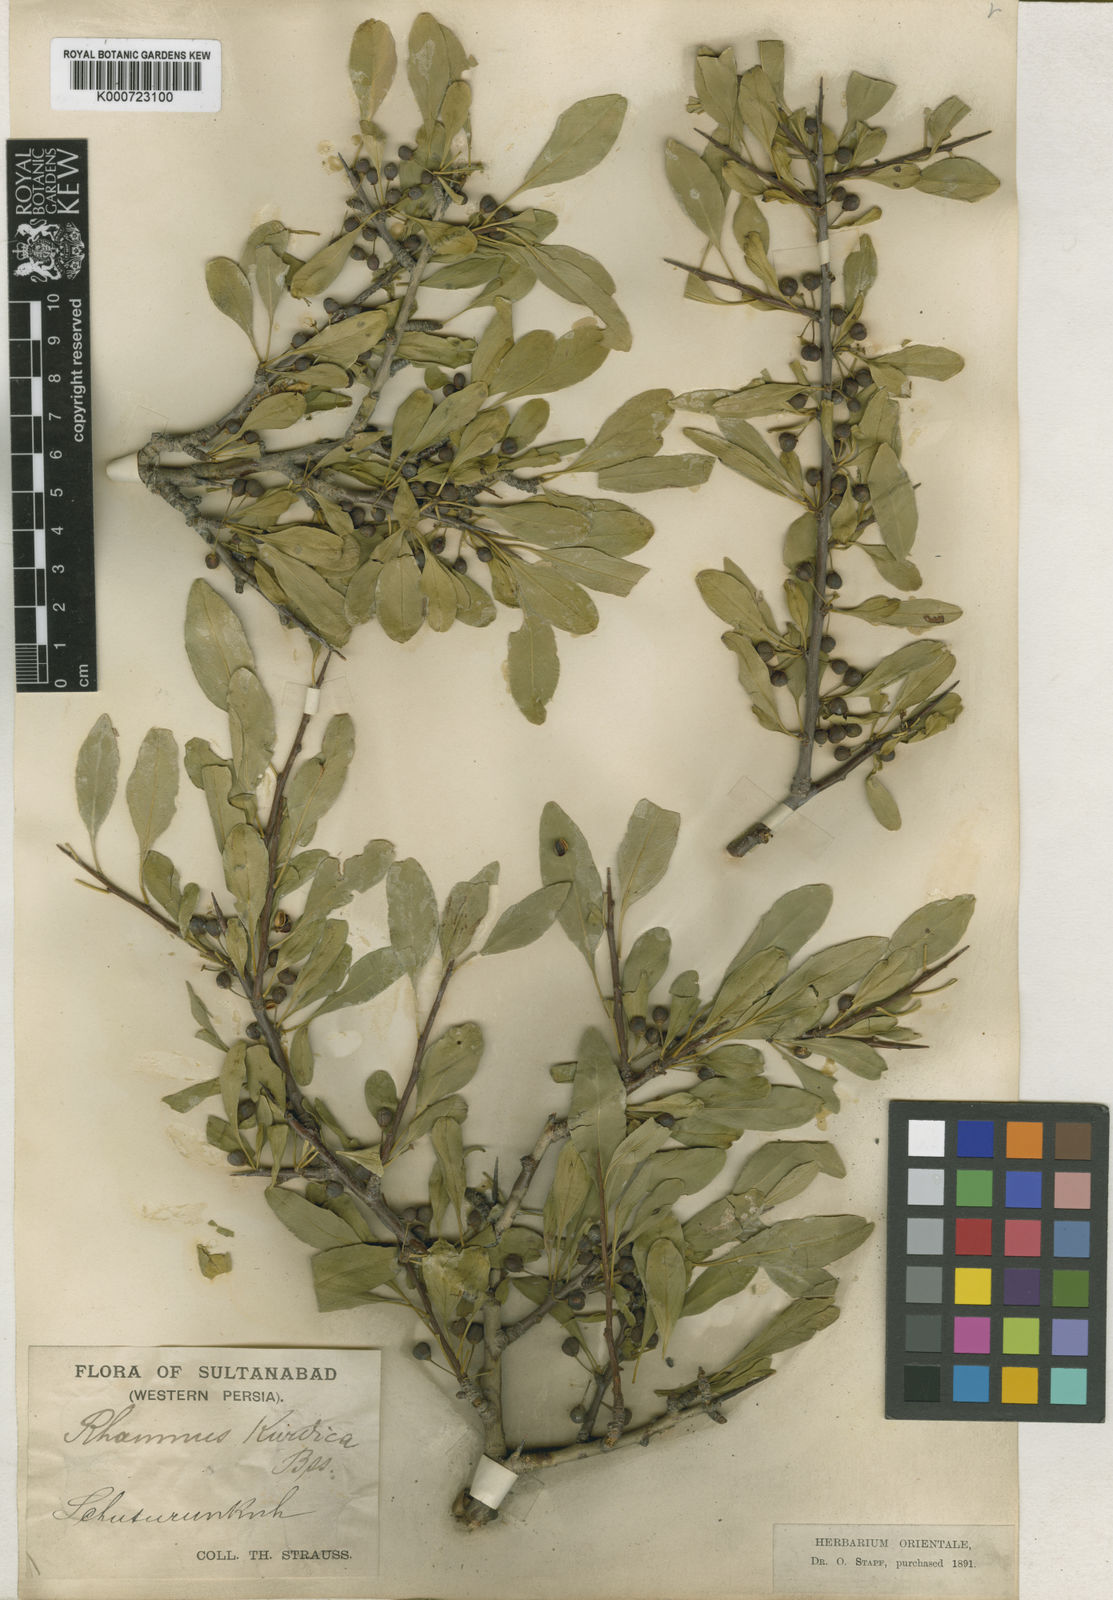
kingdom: Plantae
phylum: Tracheophyta
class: Magnoliopsida
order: Rosales
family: Rhamnaceae
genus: Rhamnus
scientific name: Rhamnus erythroxyloides
